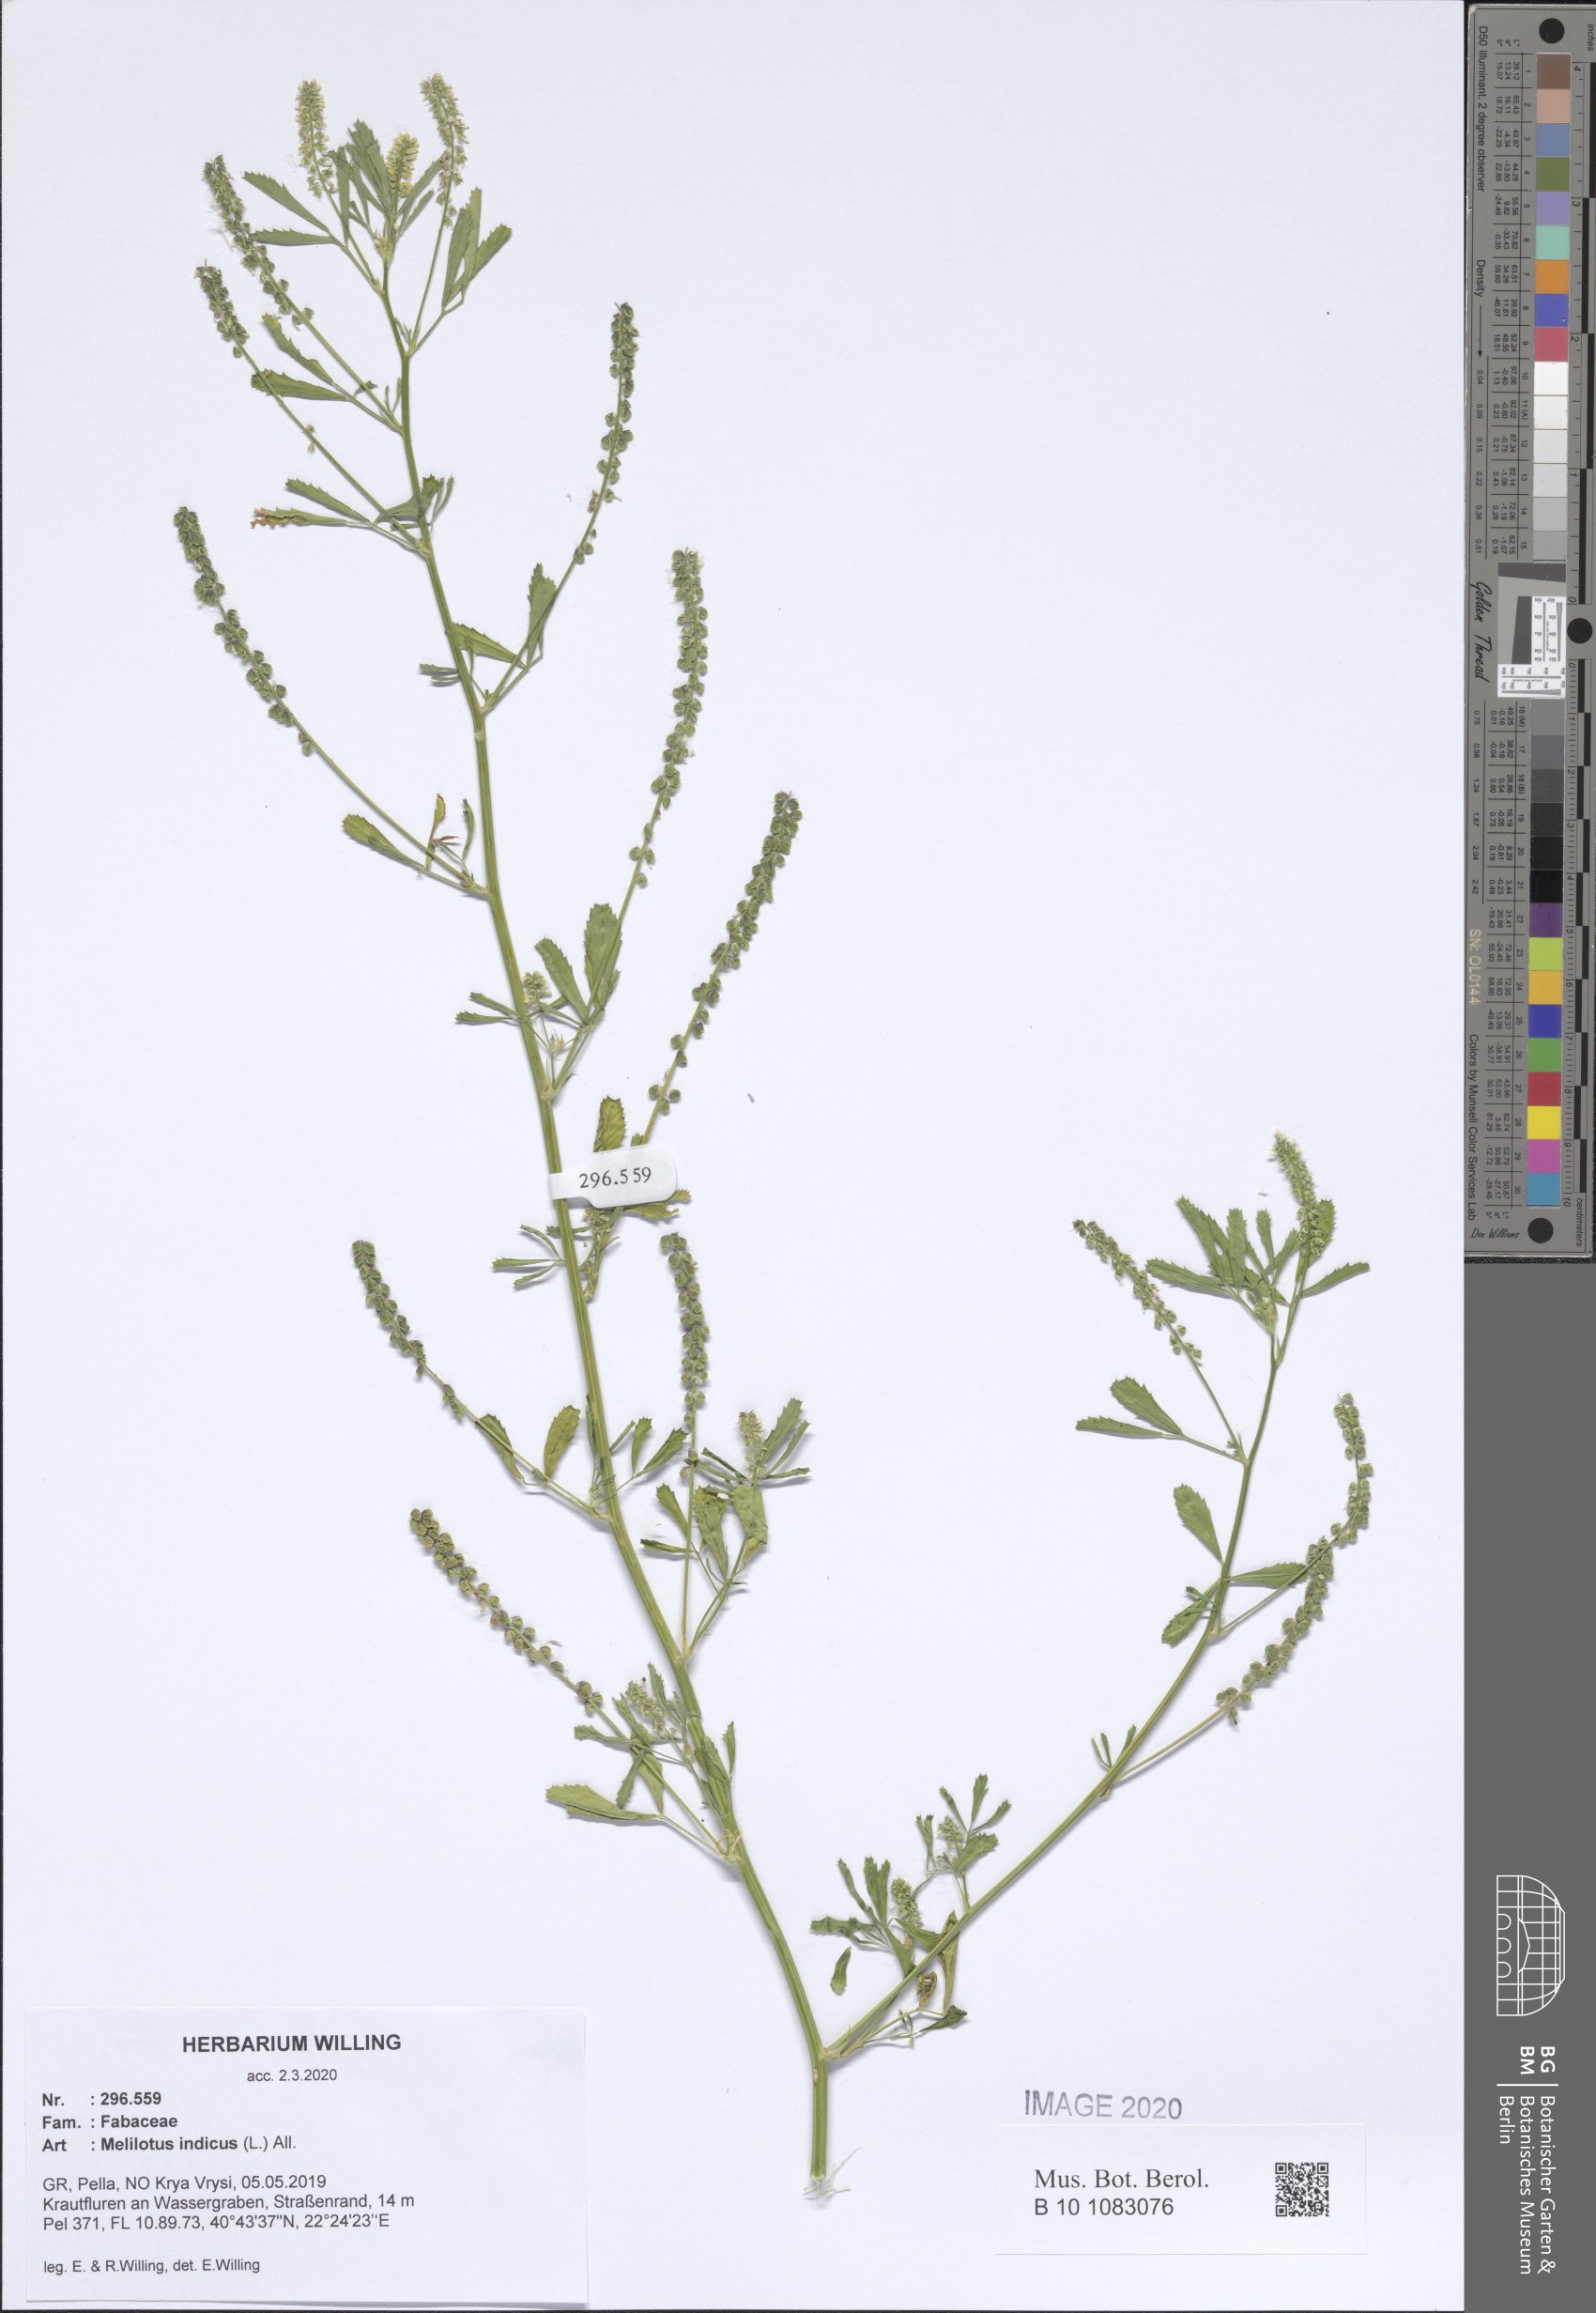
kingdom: Plantae
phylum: Tracheophyta
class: Magnoliopsida
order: Fabales
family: Fabaceae
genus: Melilotus
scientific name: Melilotus indicus
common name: Small melilot
